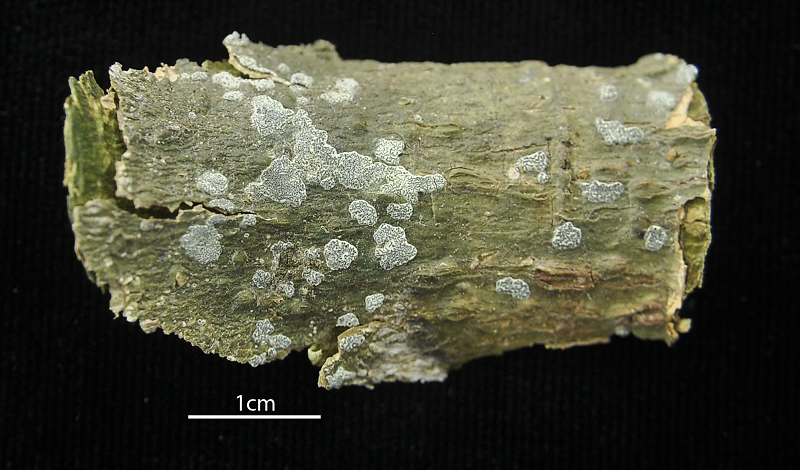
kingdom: Fungi
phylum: Ascomycota
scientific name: Ascomycota
